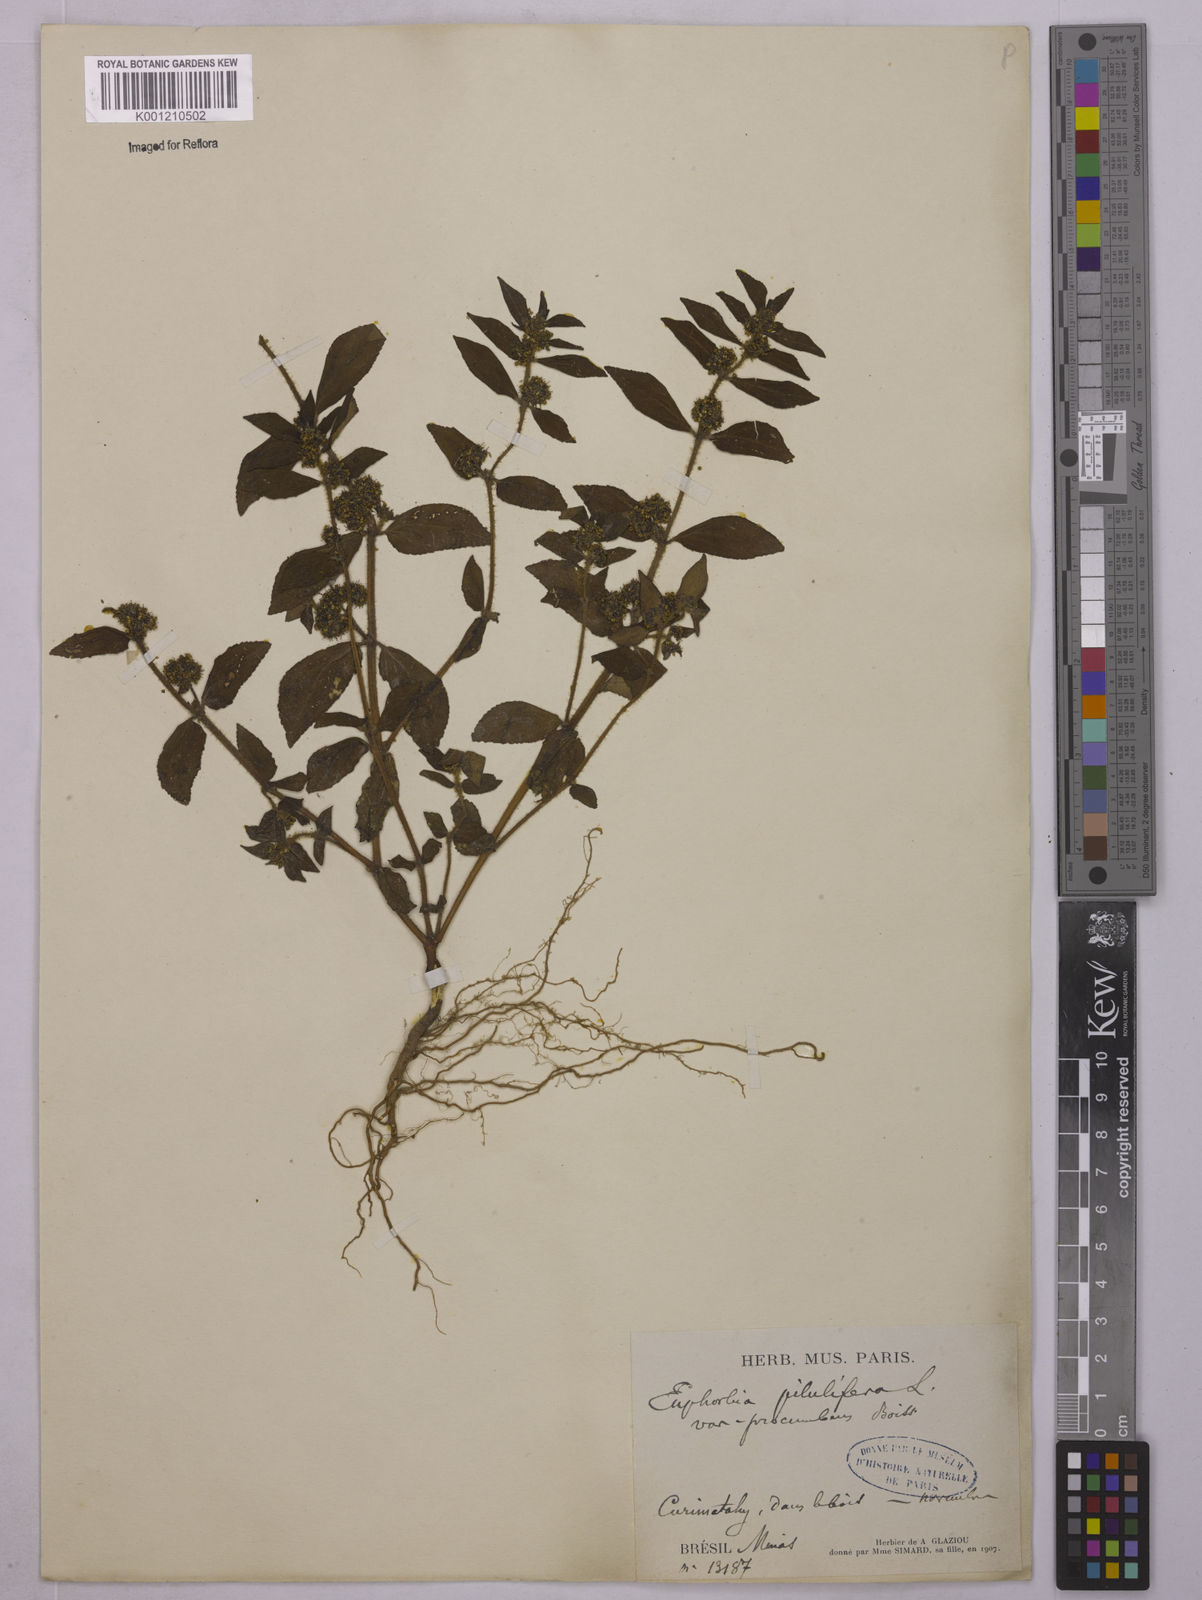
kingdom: Plantae
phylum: Tracheophyta
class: Magnoliopsida
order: Malpighiales
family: Euphorbiaceae
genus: Euphorbia
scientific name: Euphorbia hirta
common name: Pillpod sandmat
